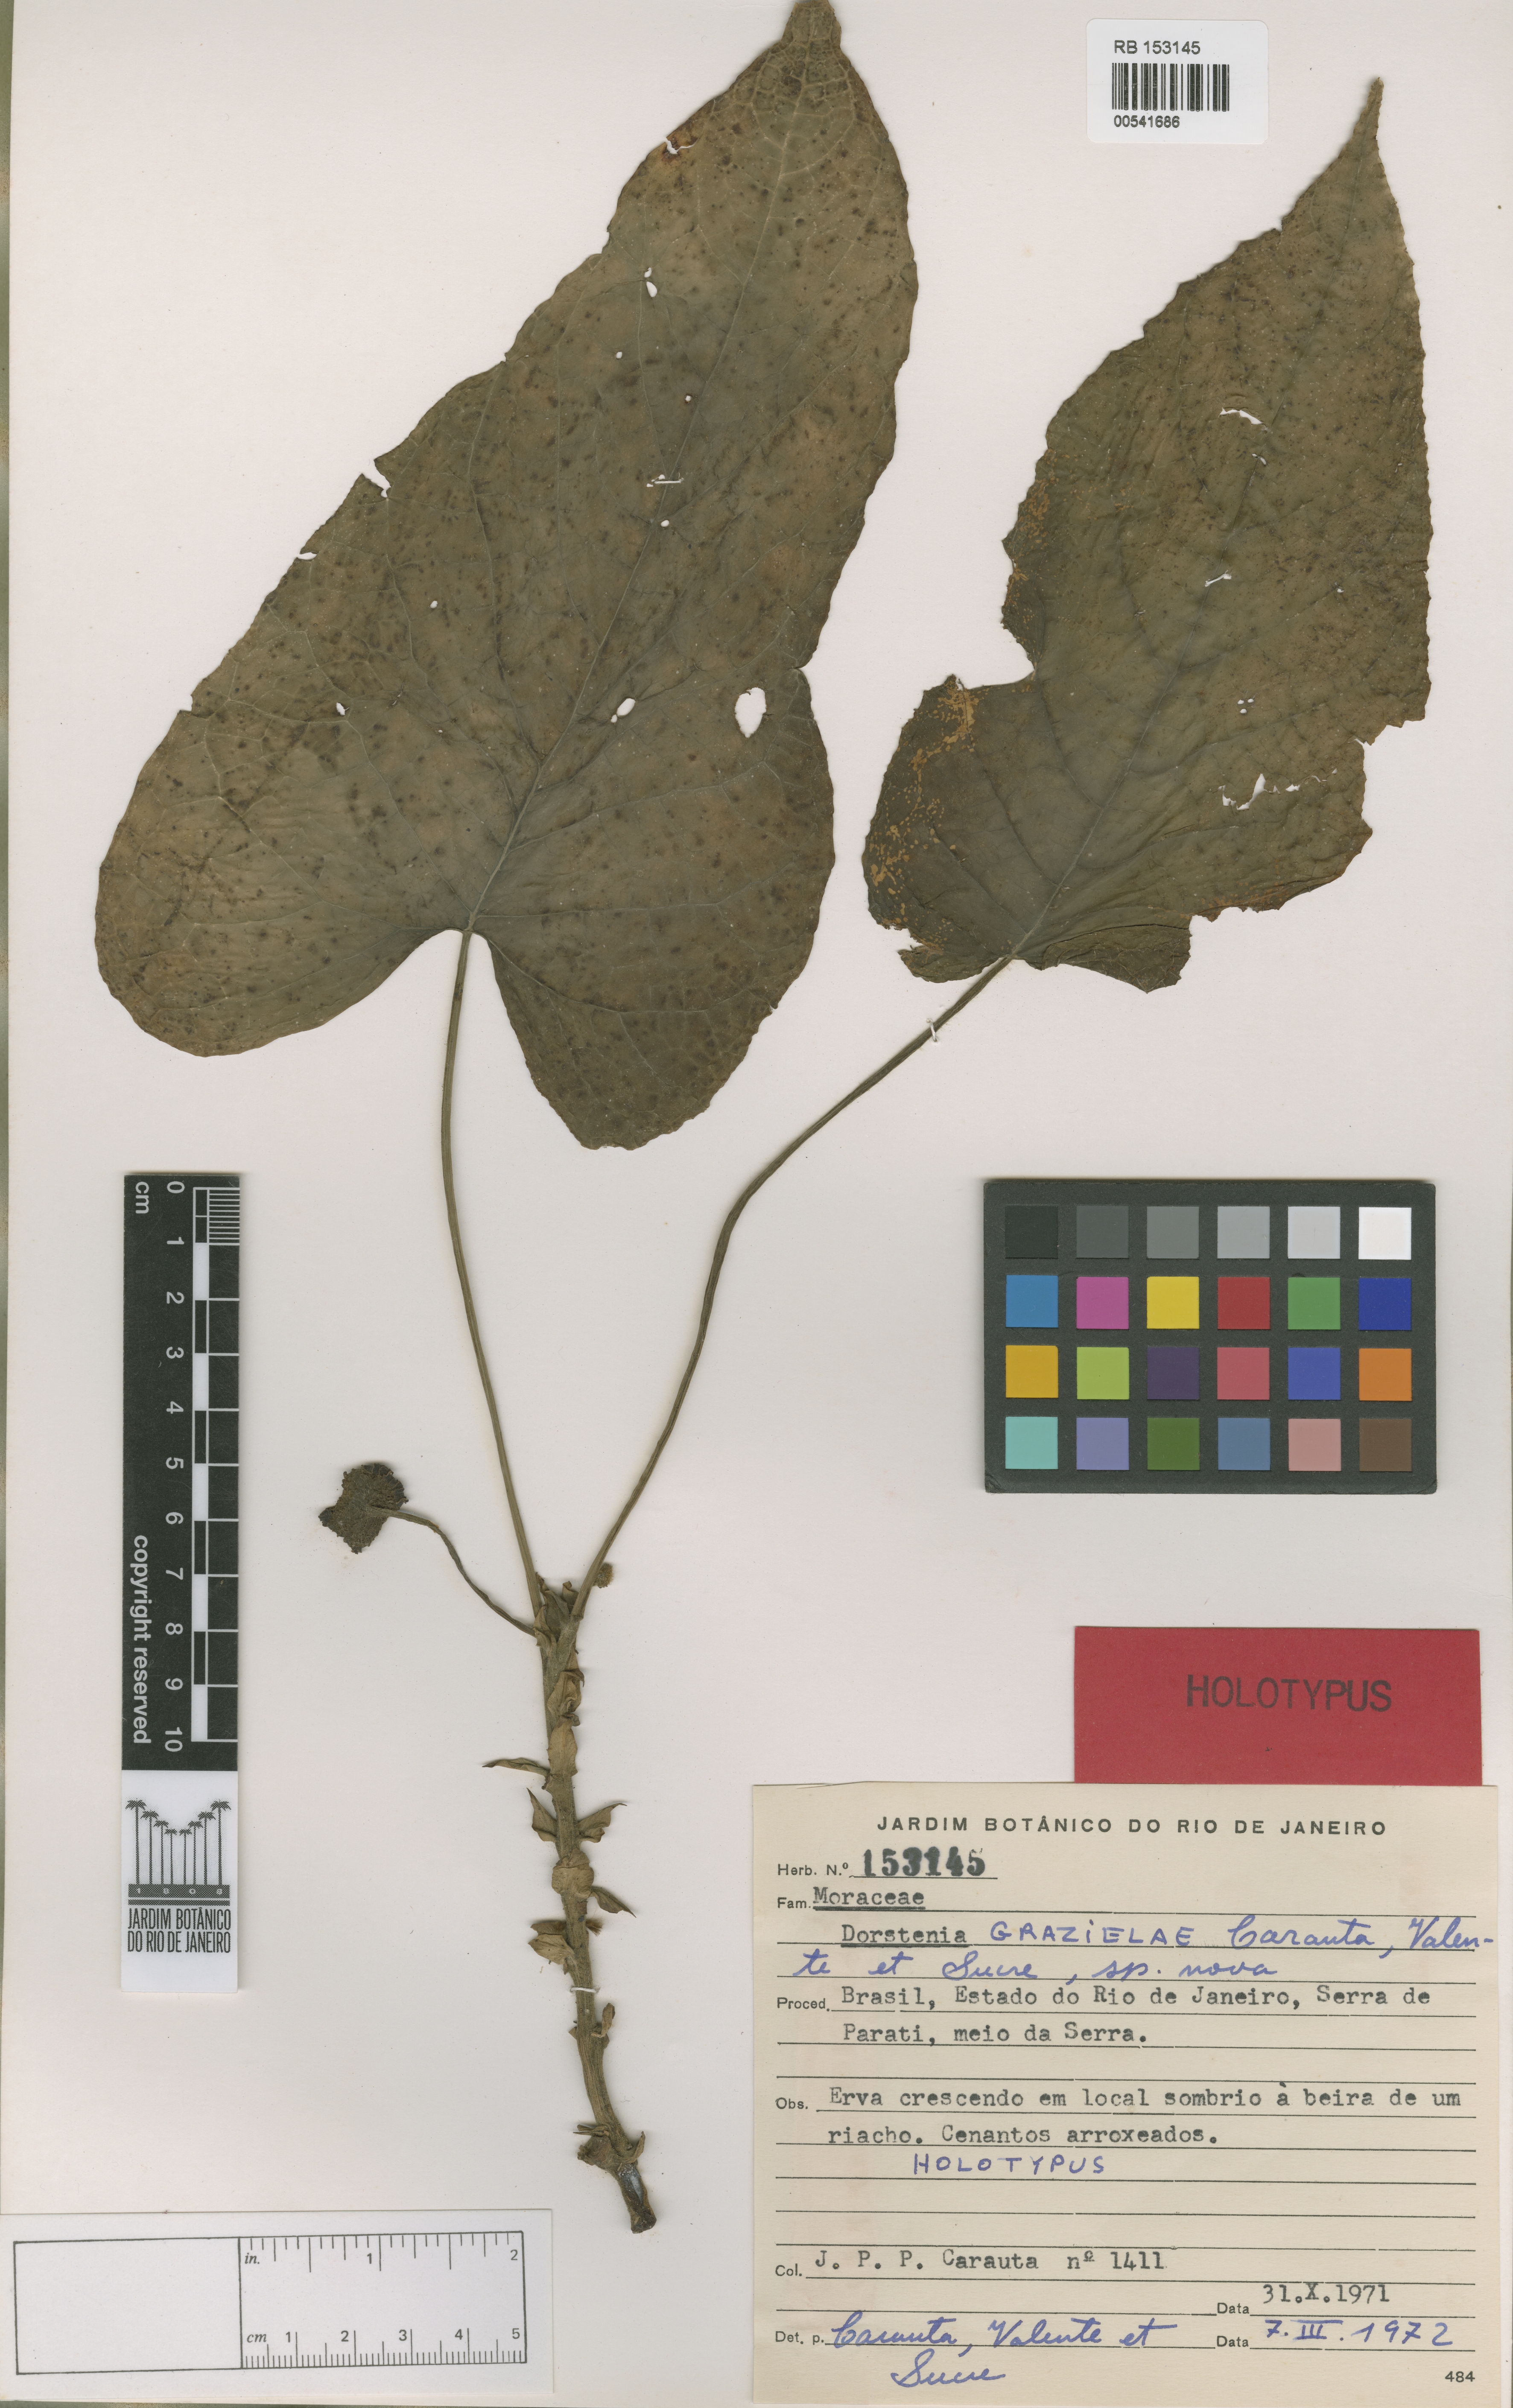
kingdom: Plantae
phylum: Tracheophyta
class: Magnoliopsida
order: Rosales
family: Moraceae
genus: Dorstenia
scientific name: Dorstenia grazielae
